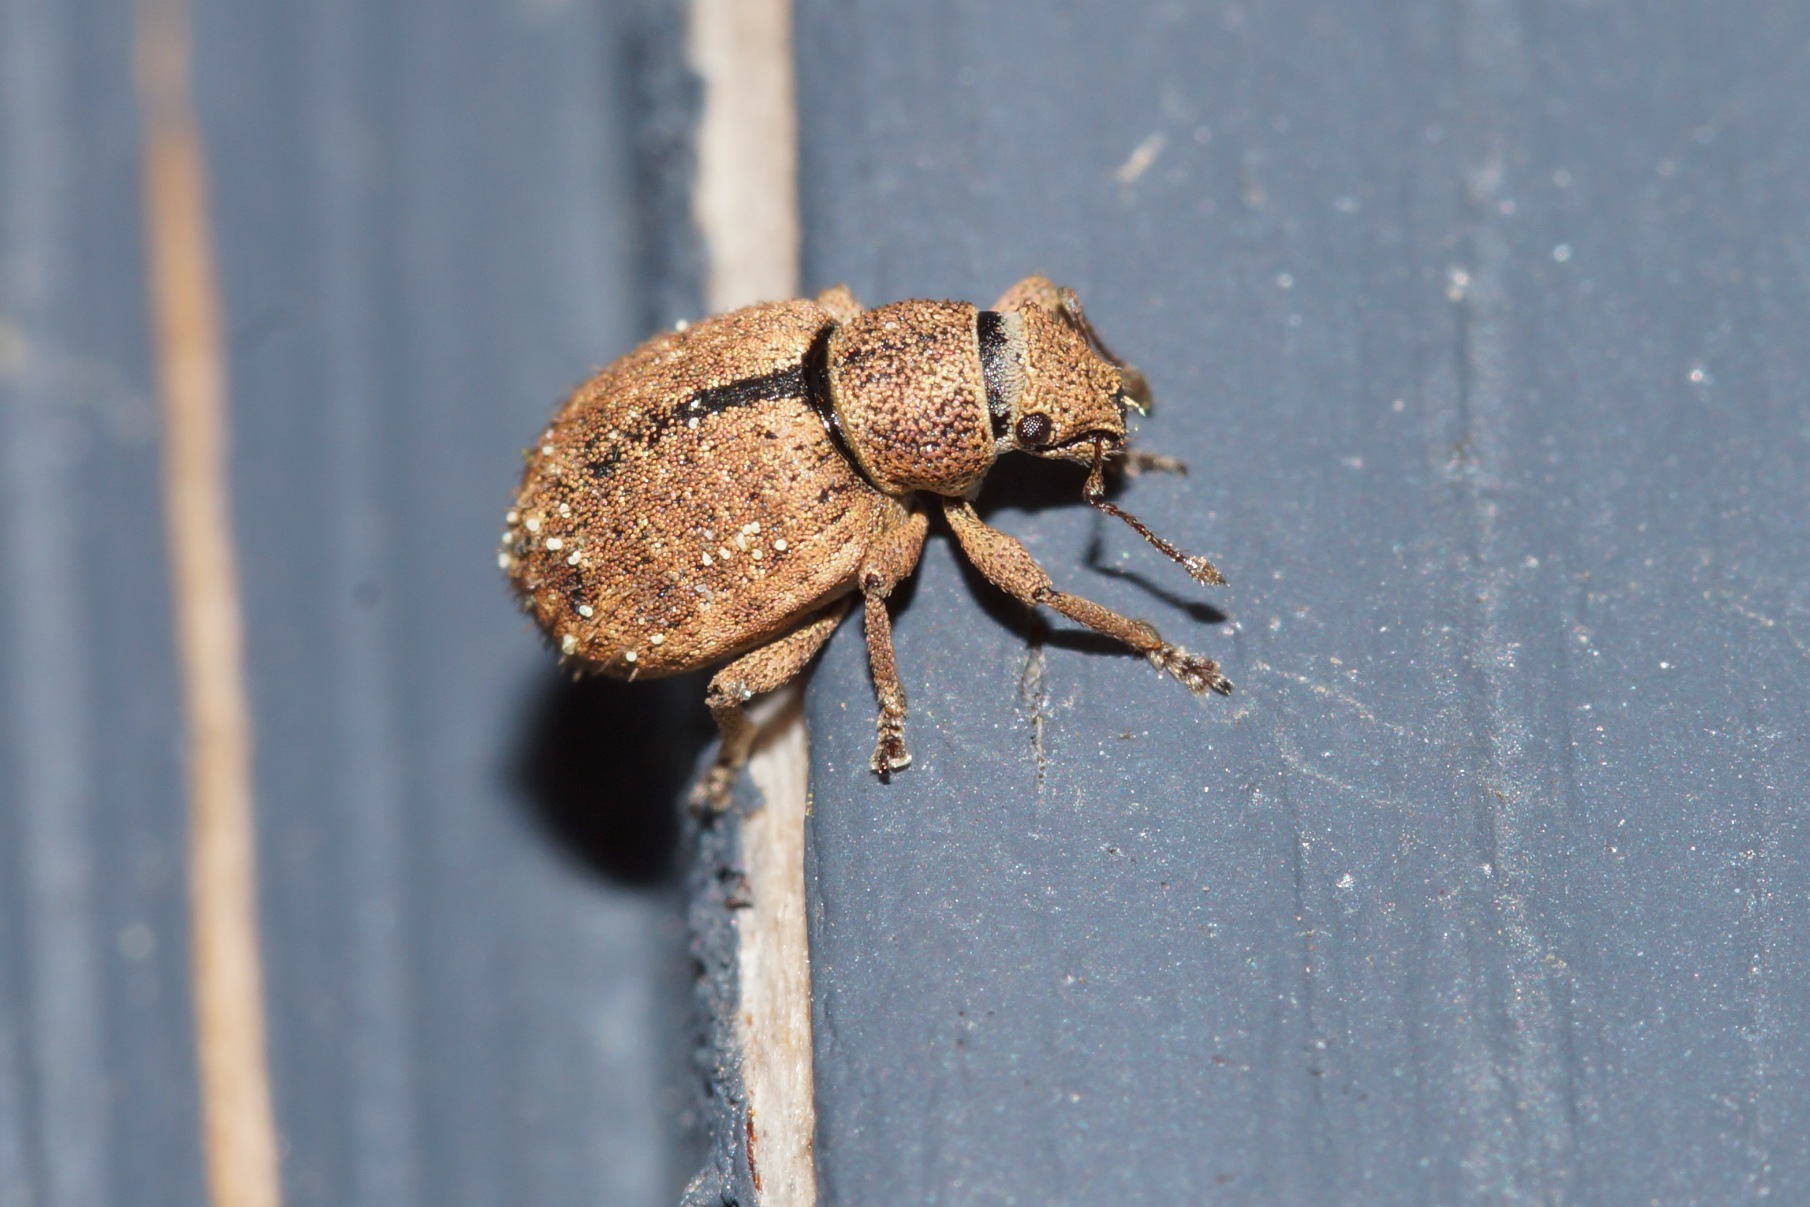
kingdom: Animalia
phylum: Arthropoda
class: Insecta
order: Coleoptera
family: Curculionidae
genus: Strophosoma
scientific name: Strophosoma melanogrammum
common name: Stribet gråsnude
